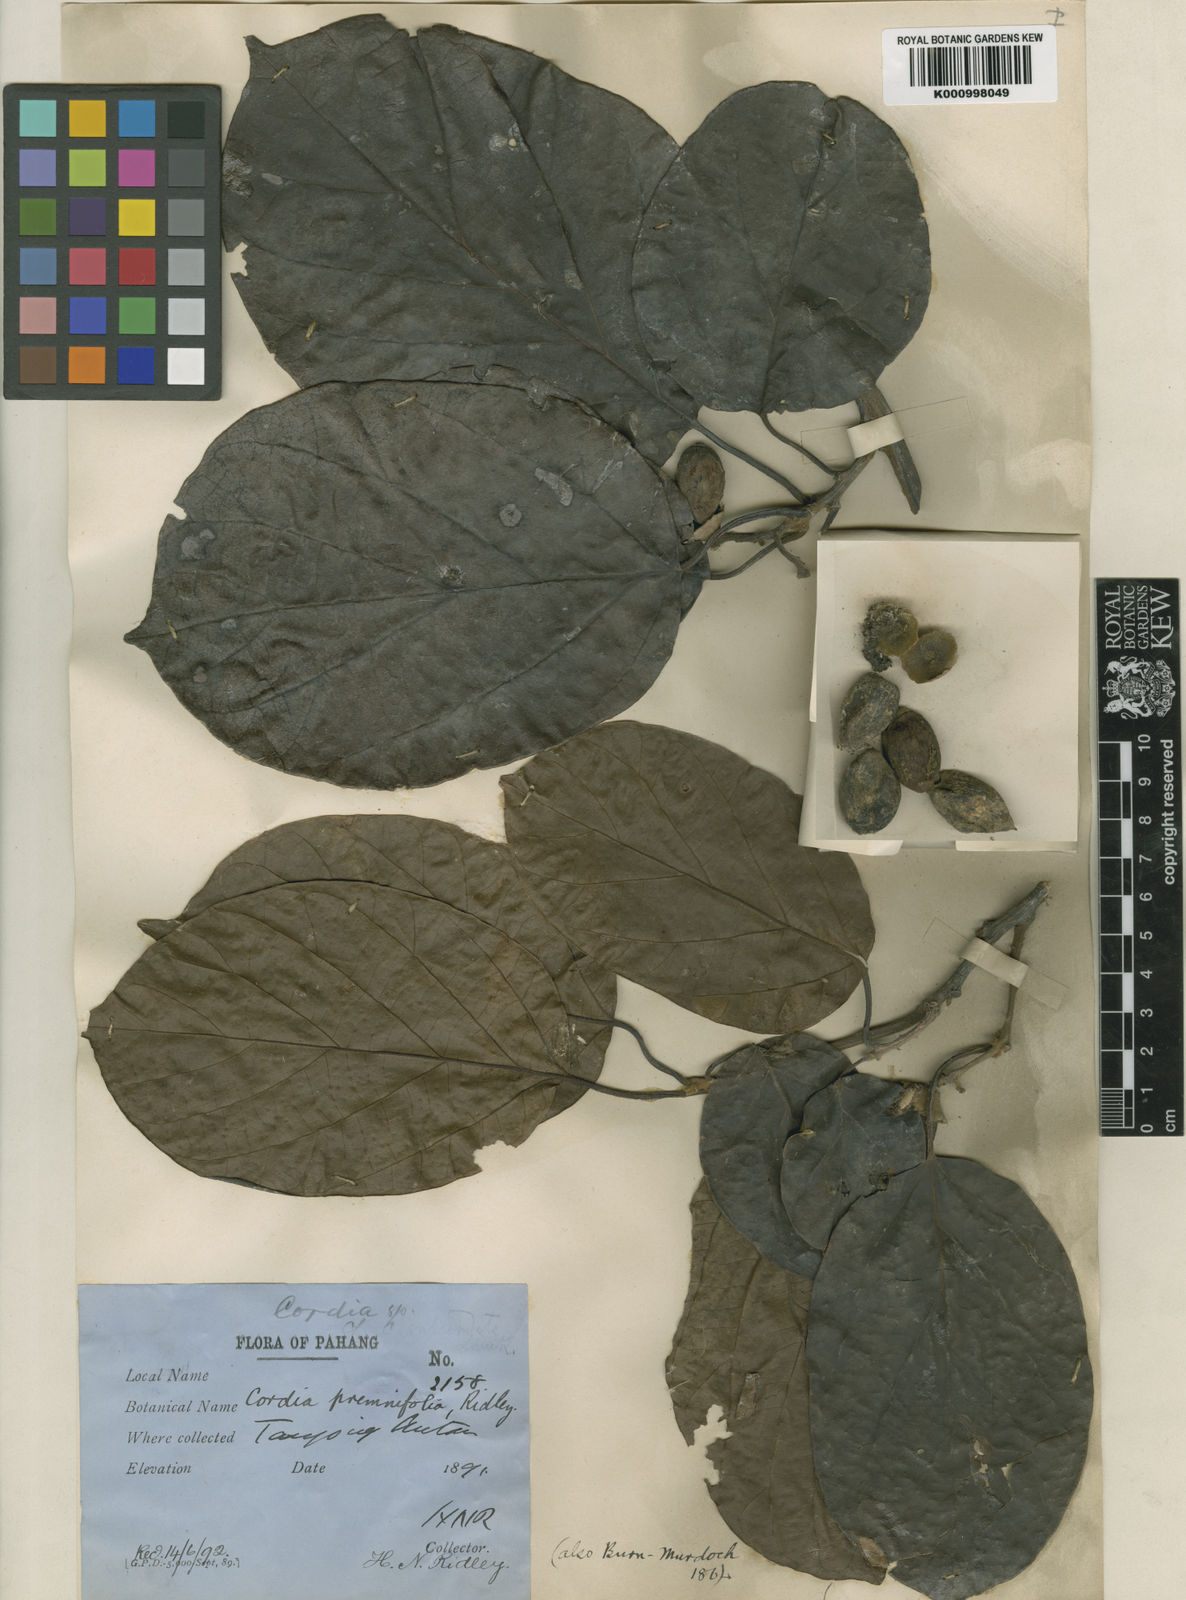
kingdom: Plantae
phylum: Tracheophyta
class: Magnoliopsida
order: Boraginales
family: Cordiaceae
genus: Cordia
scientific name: Cordia cochinchinensis
